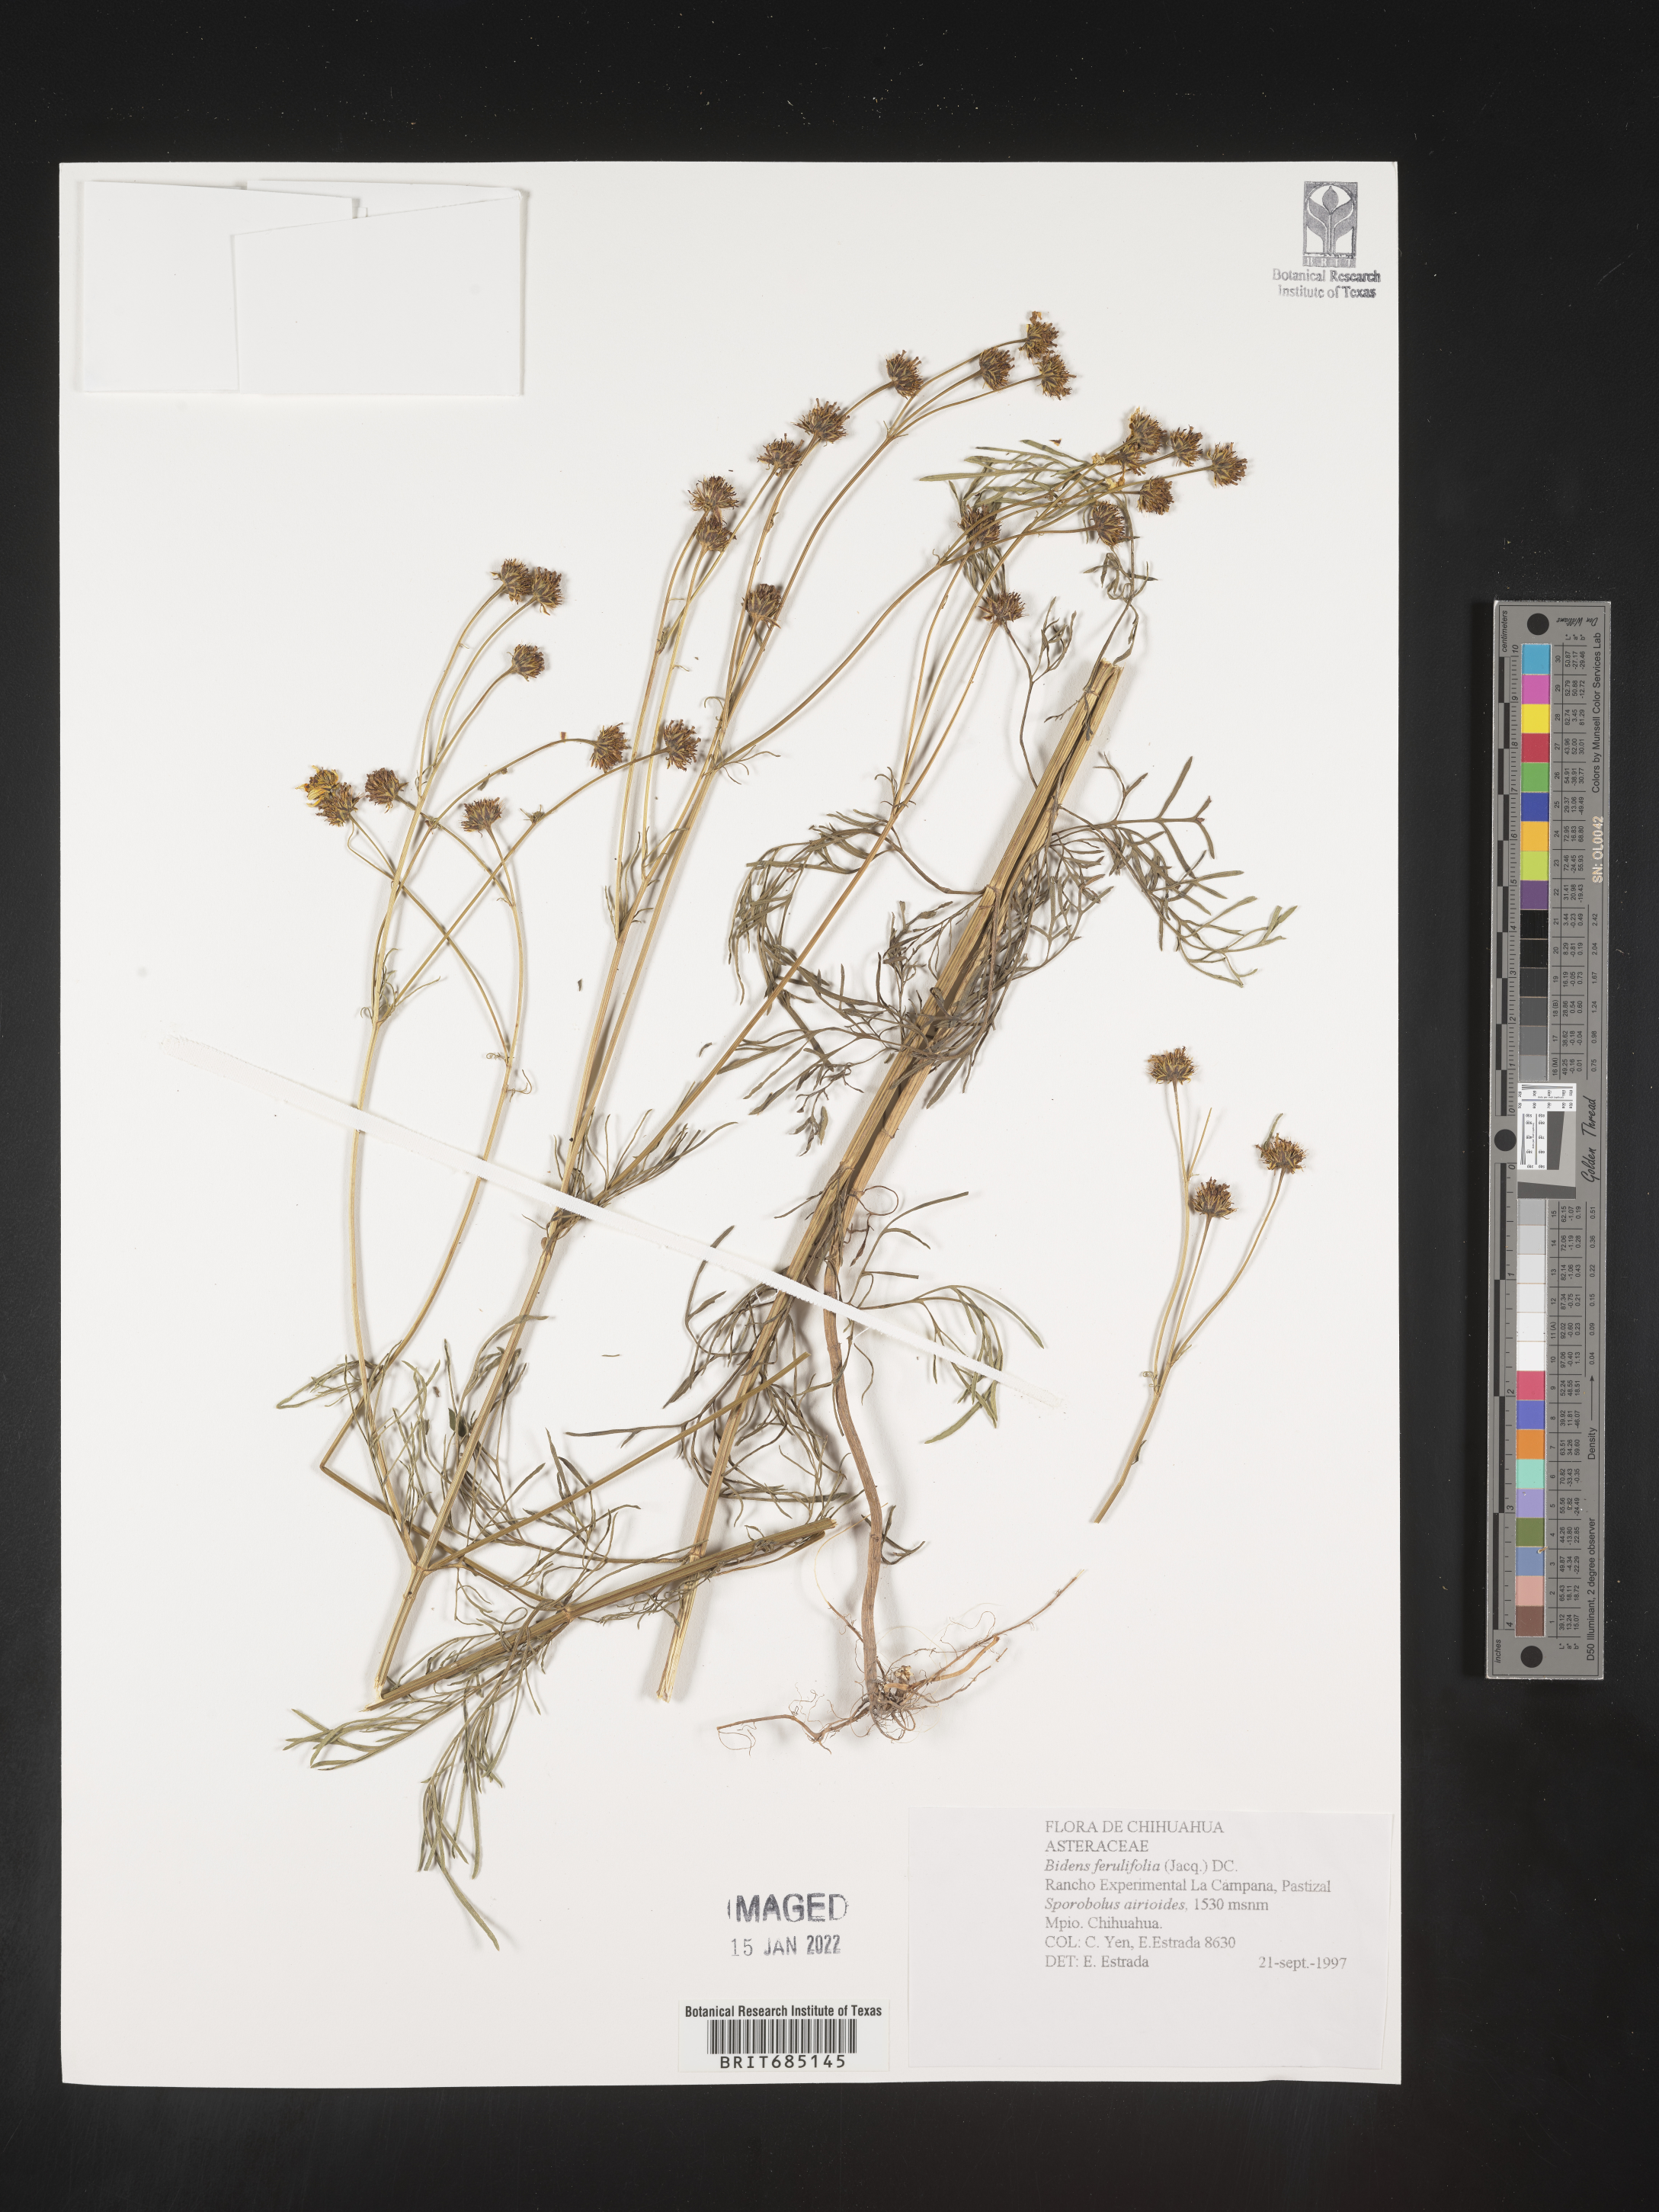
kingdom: Plantae
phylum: Tracheophyta
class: Magnoliopsida
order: Asterales
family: Asteraceae
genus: Bidens
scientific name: Bidens
